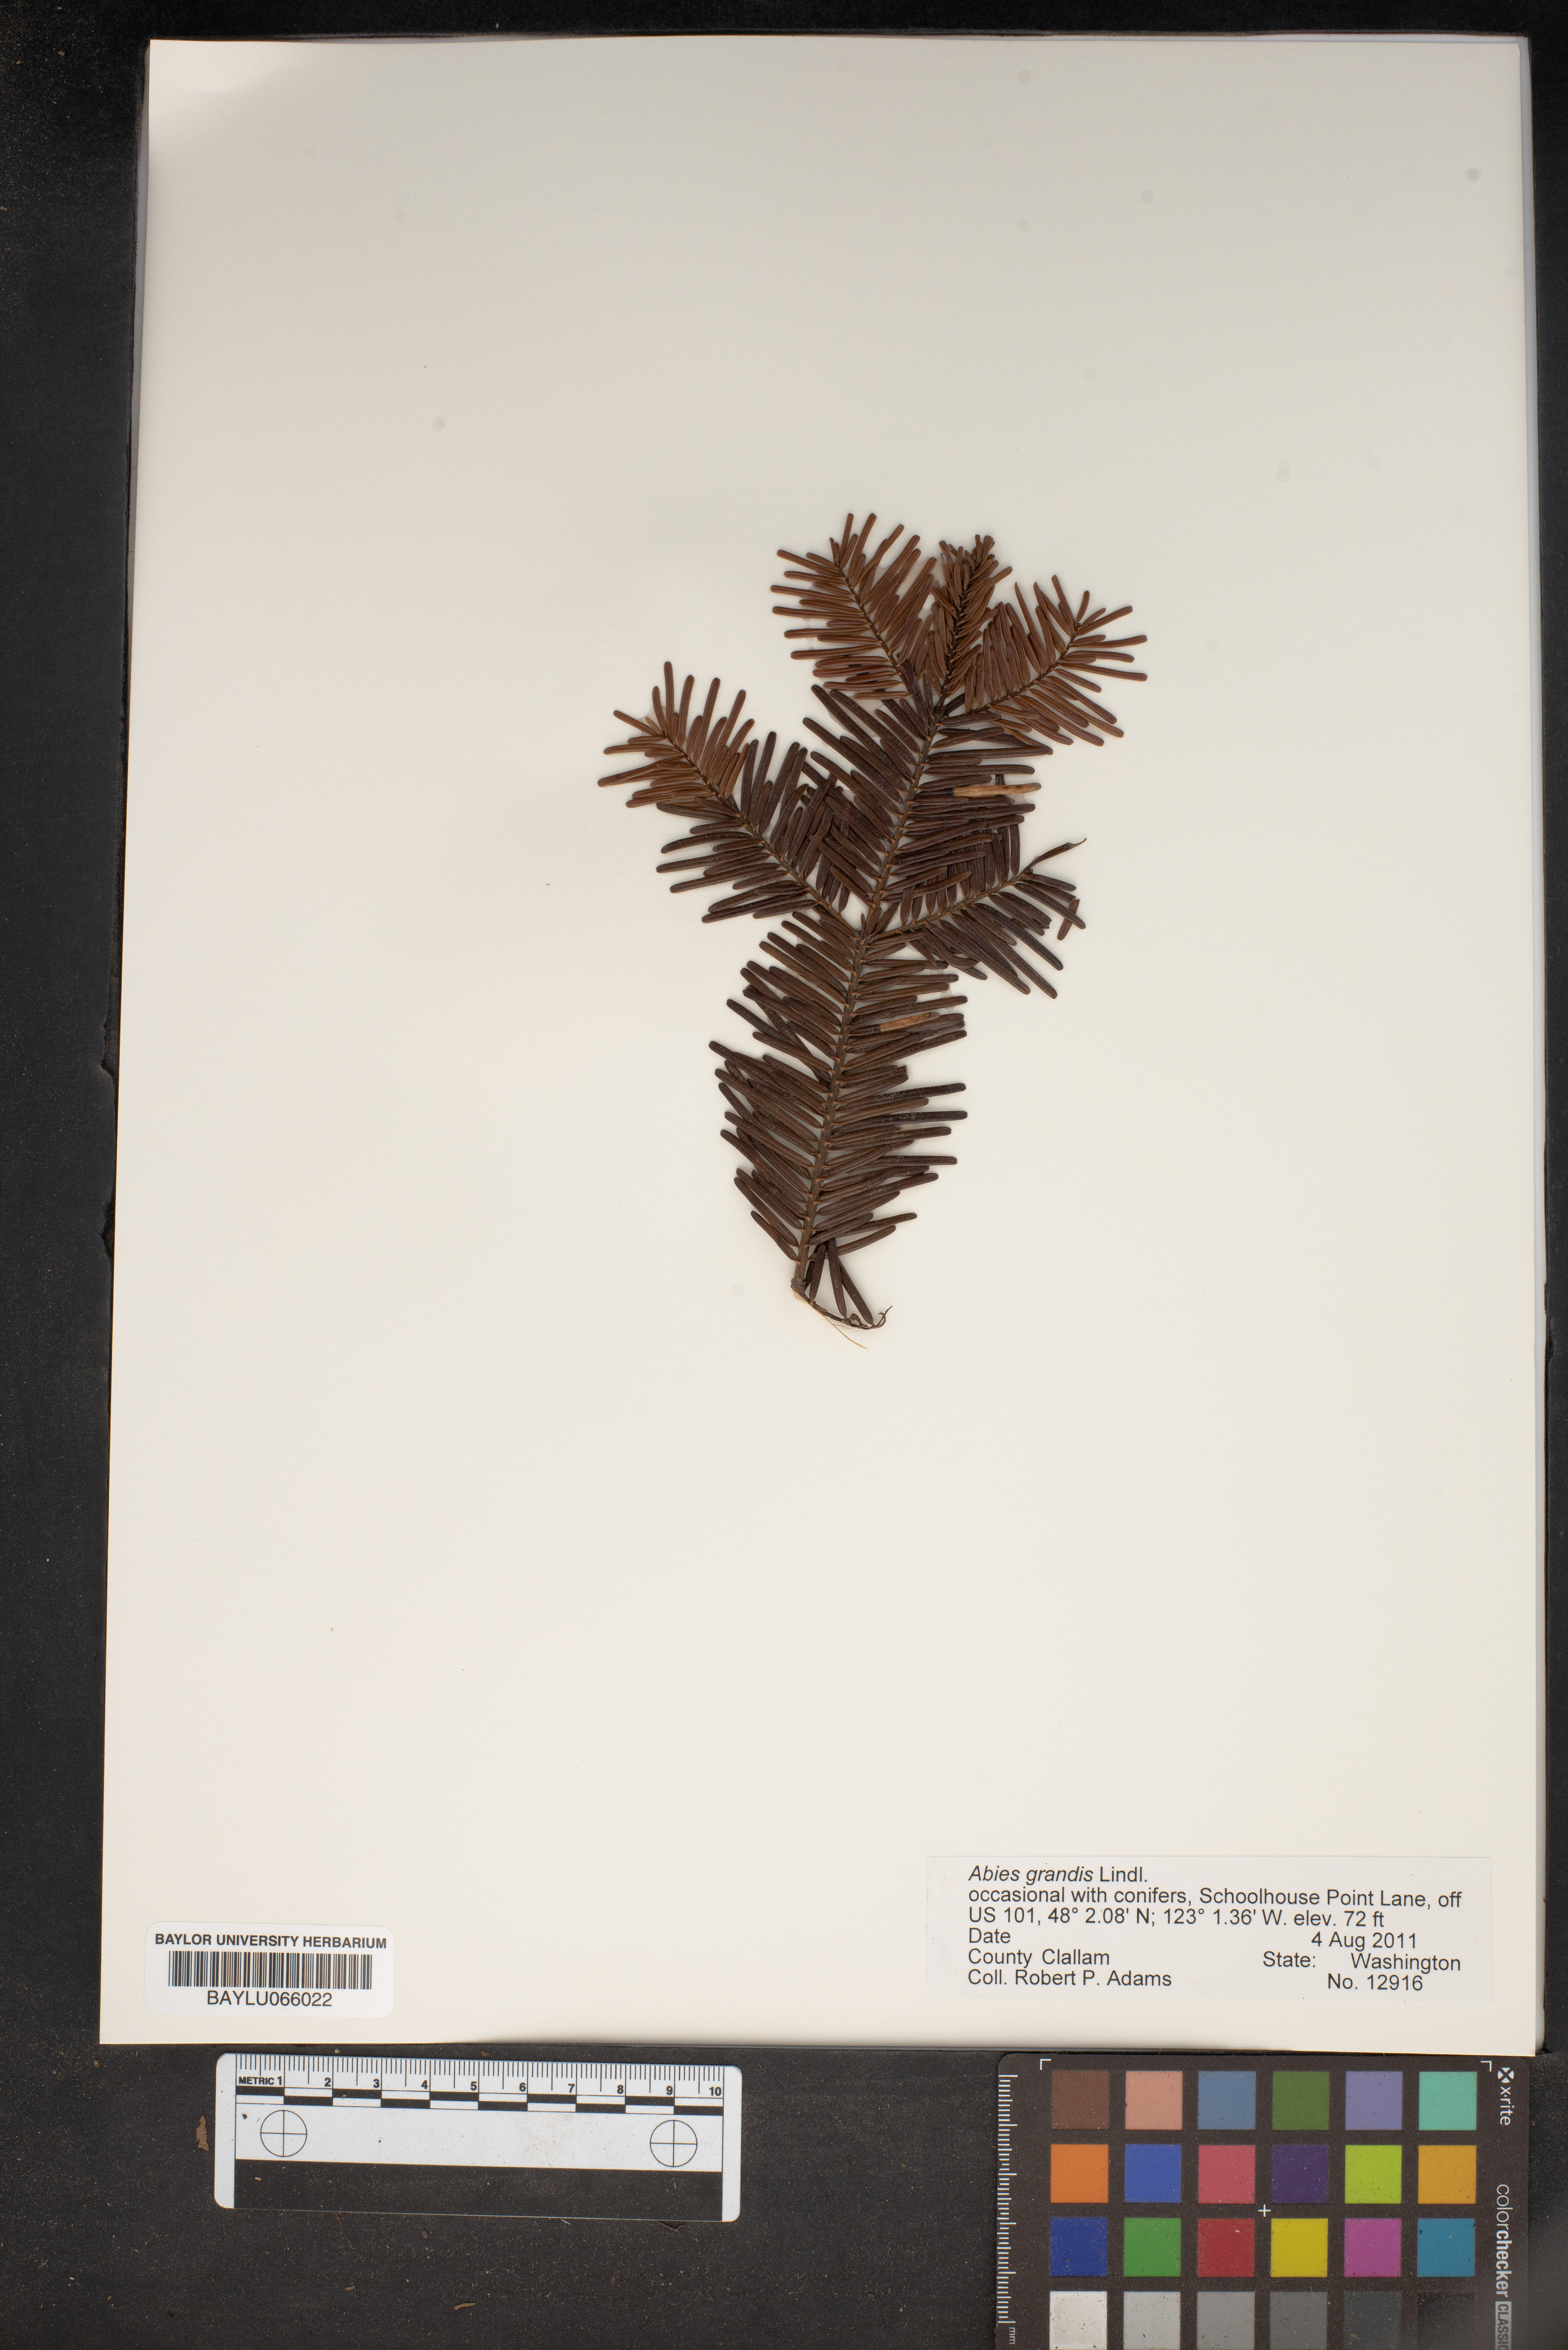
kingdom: Plantae
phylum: Tracheophyta
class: Pinopsida
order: Pinales
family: Pinaceae
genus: Abies
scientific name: Abies grandis
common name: Giant fir
